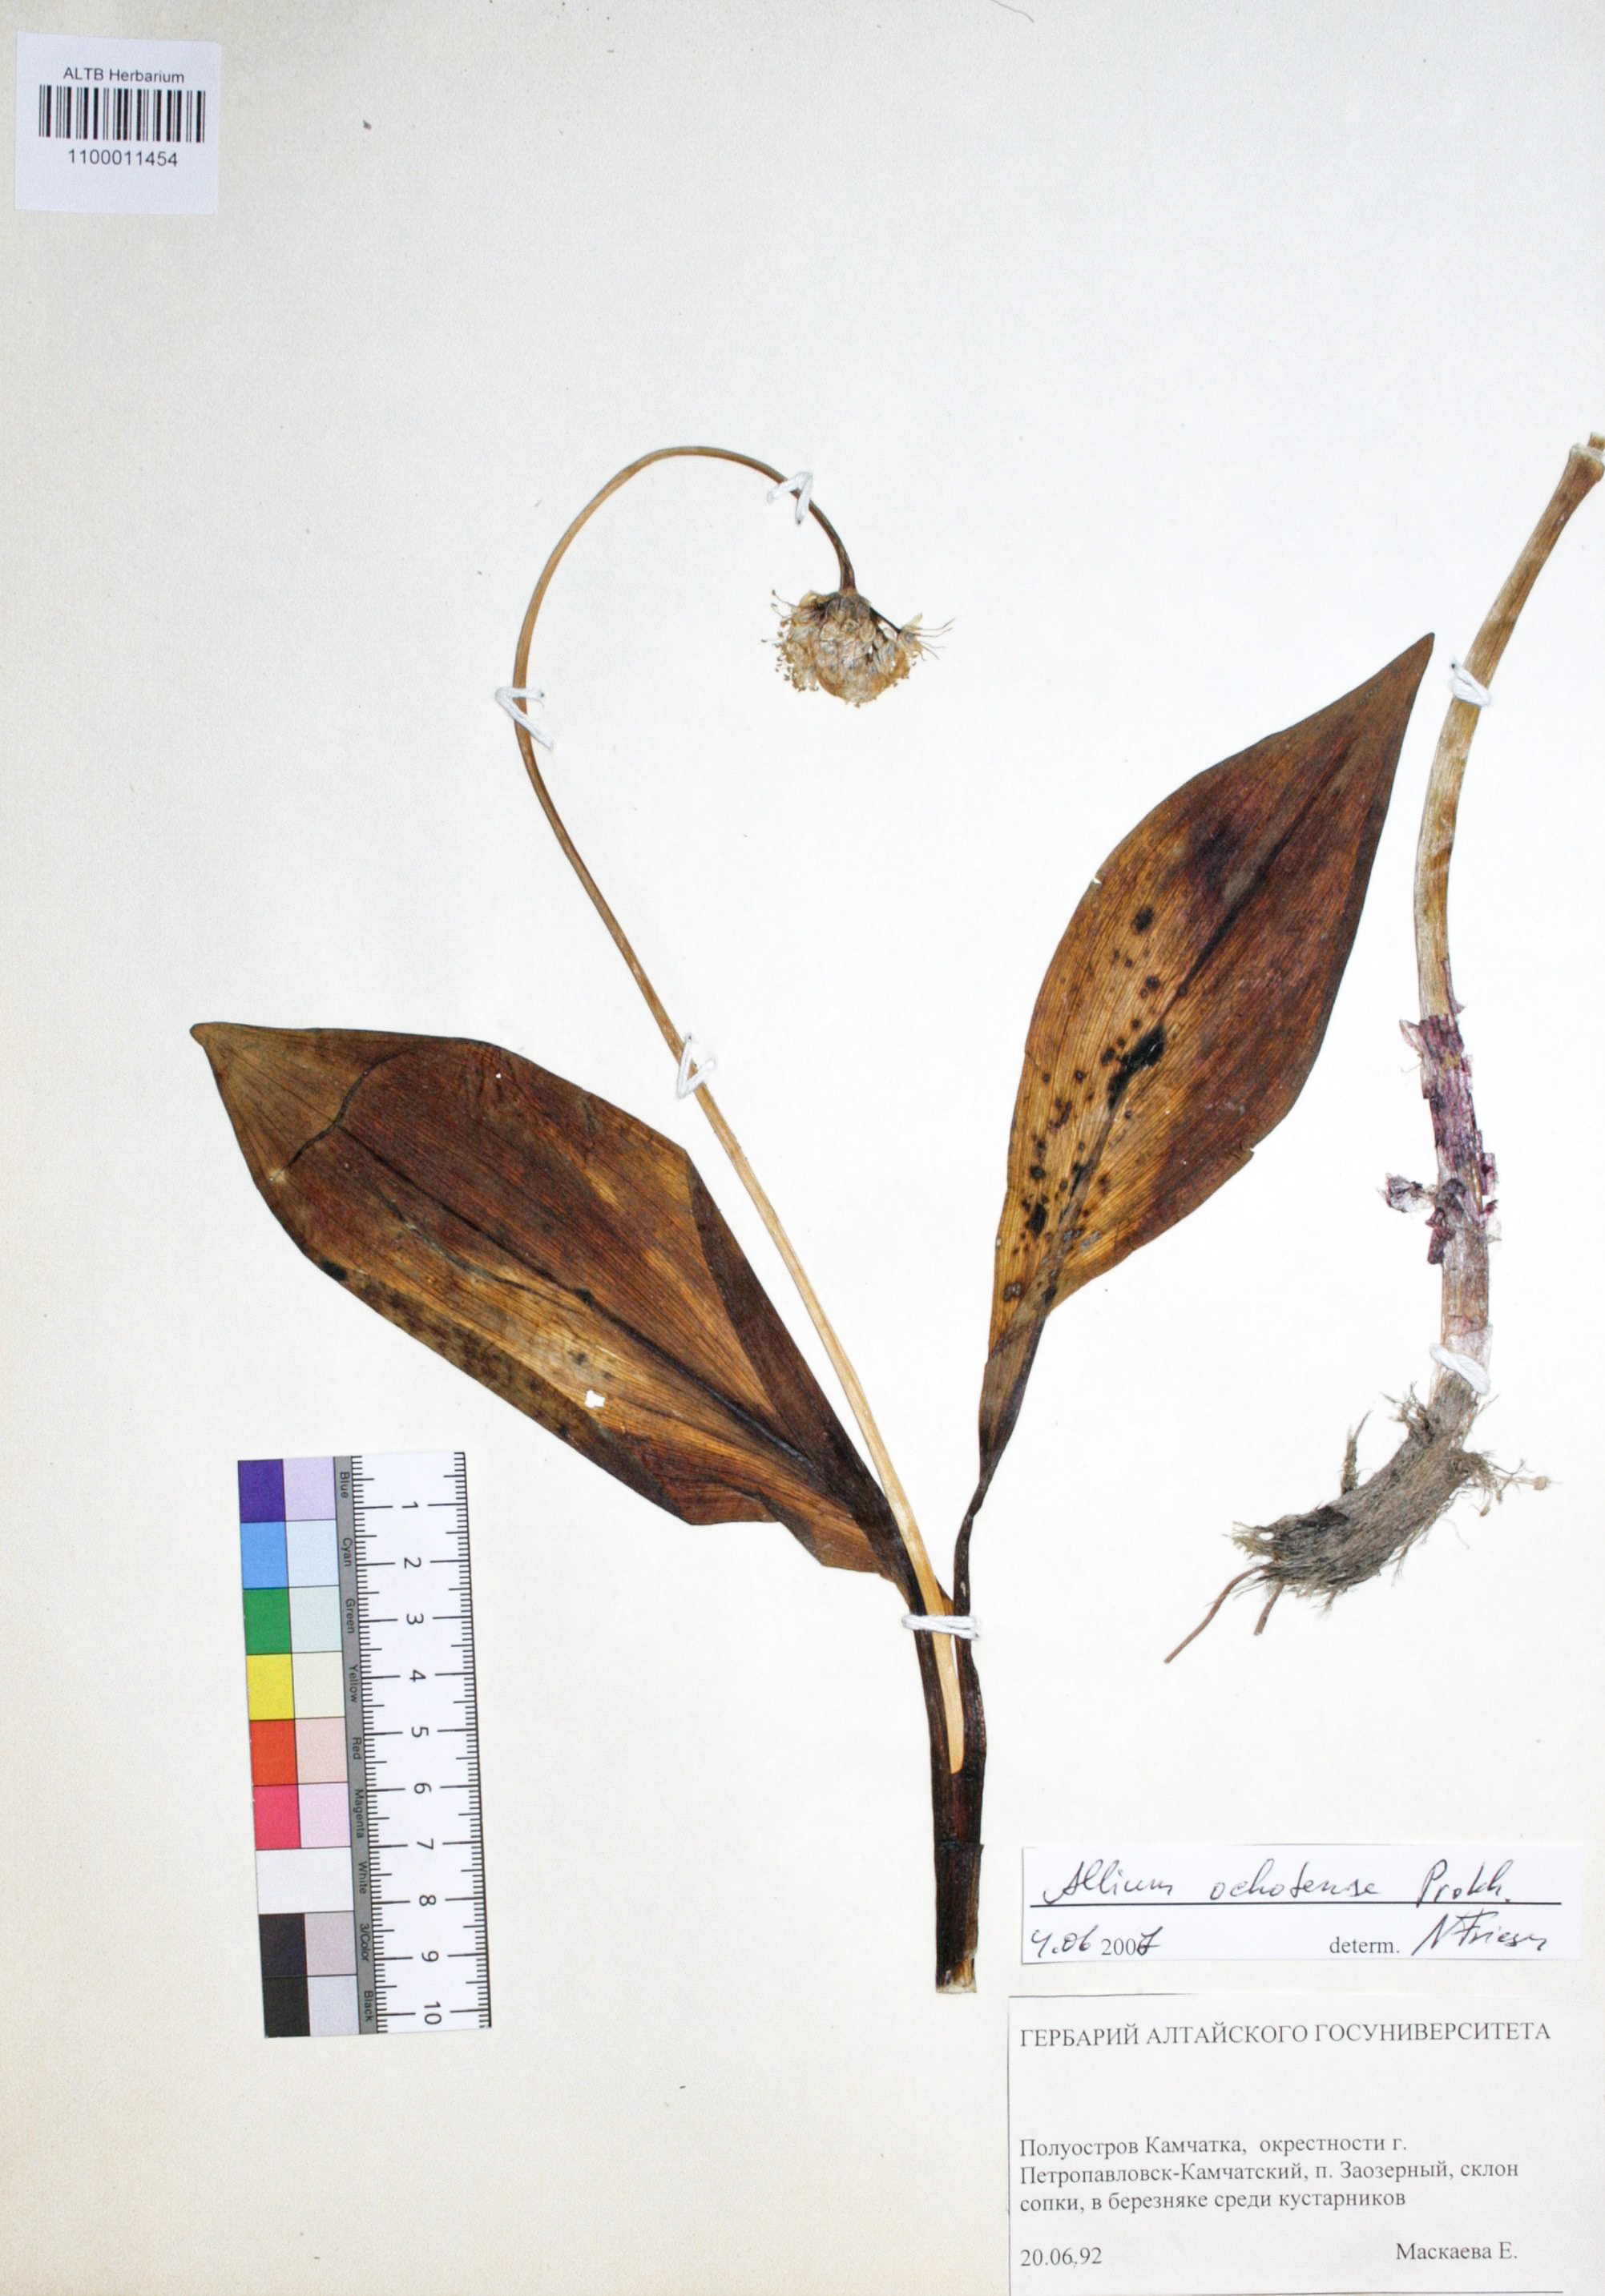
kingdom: Plantae
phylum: Tracheophyta
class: Liliopsida
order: Asparagales
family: Amaryllidaceae
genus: Allium
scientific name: Allium ochotense
